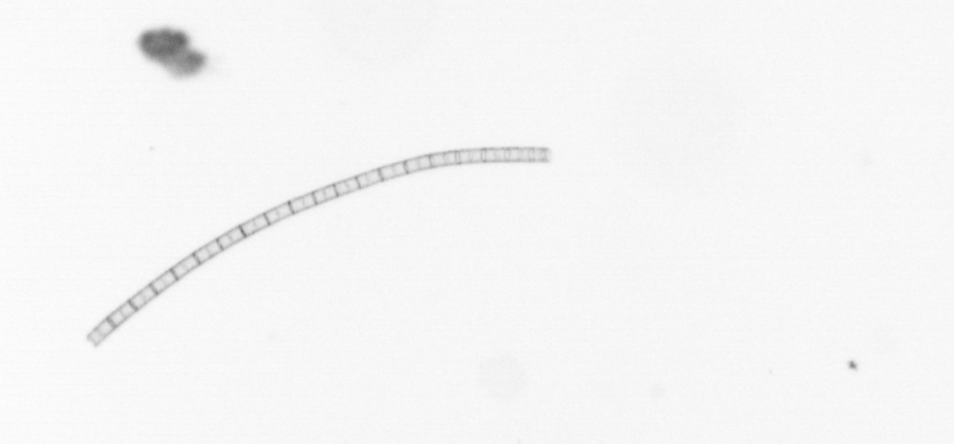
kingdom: Chromista
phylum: Ochrophyta
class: Bacillariophyceae
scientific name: Bacillariophyceae
